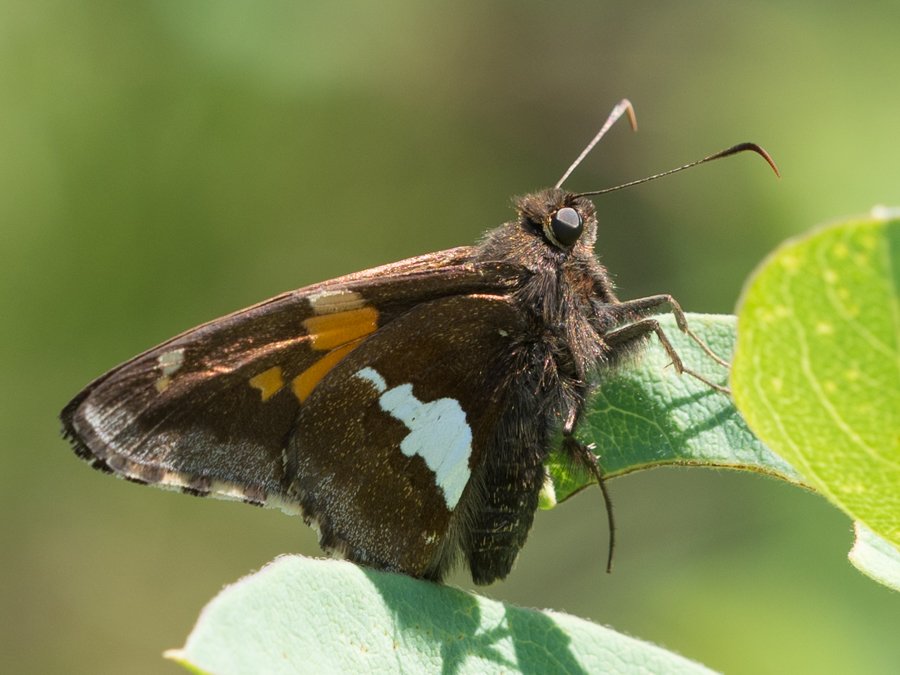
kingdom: Animalia
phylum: Arthropoda
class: Insecta
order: Lepidoptera
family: Hesperiidae
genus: Epargyreus
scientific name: Epargyreus clarus
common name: Silver-spotted Skipper
